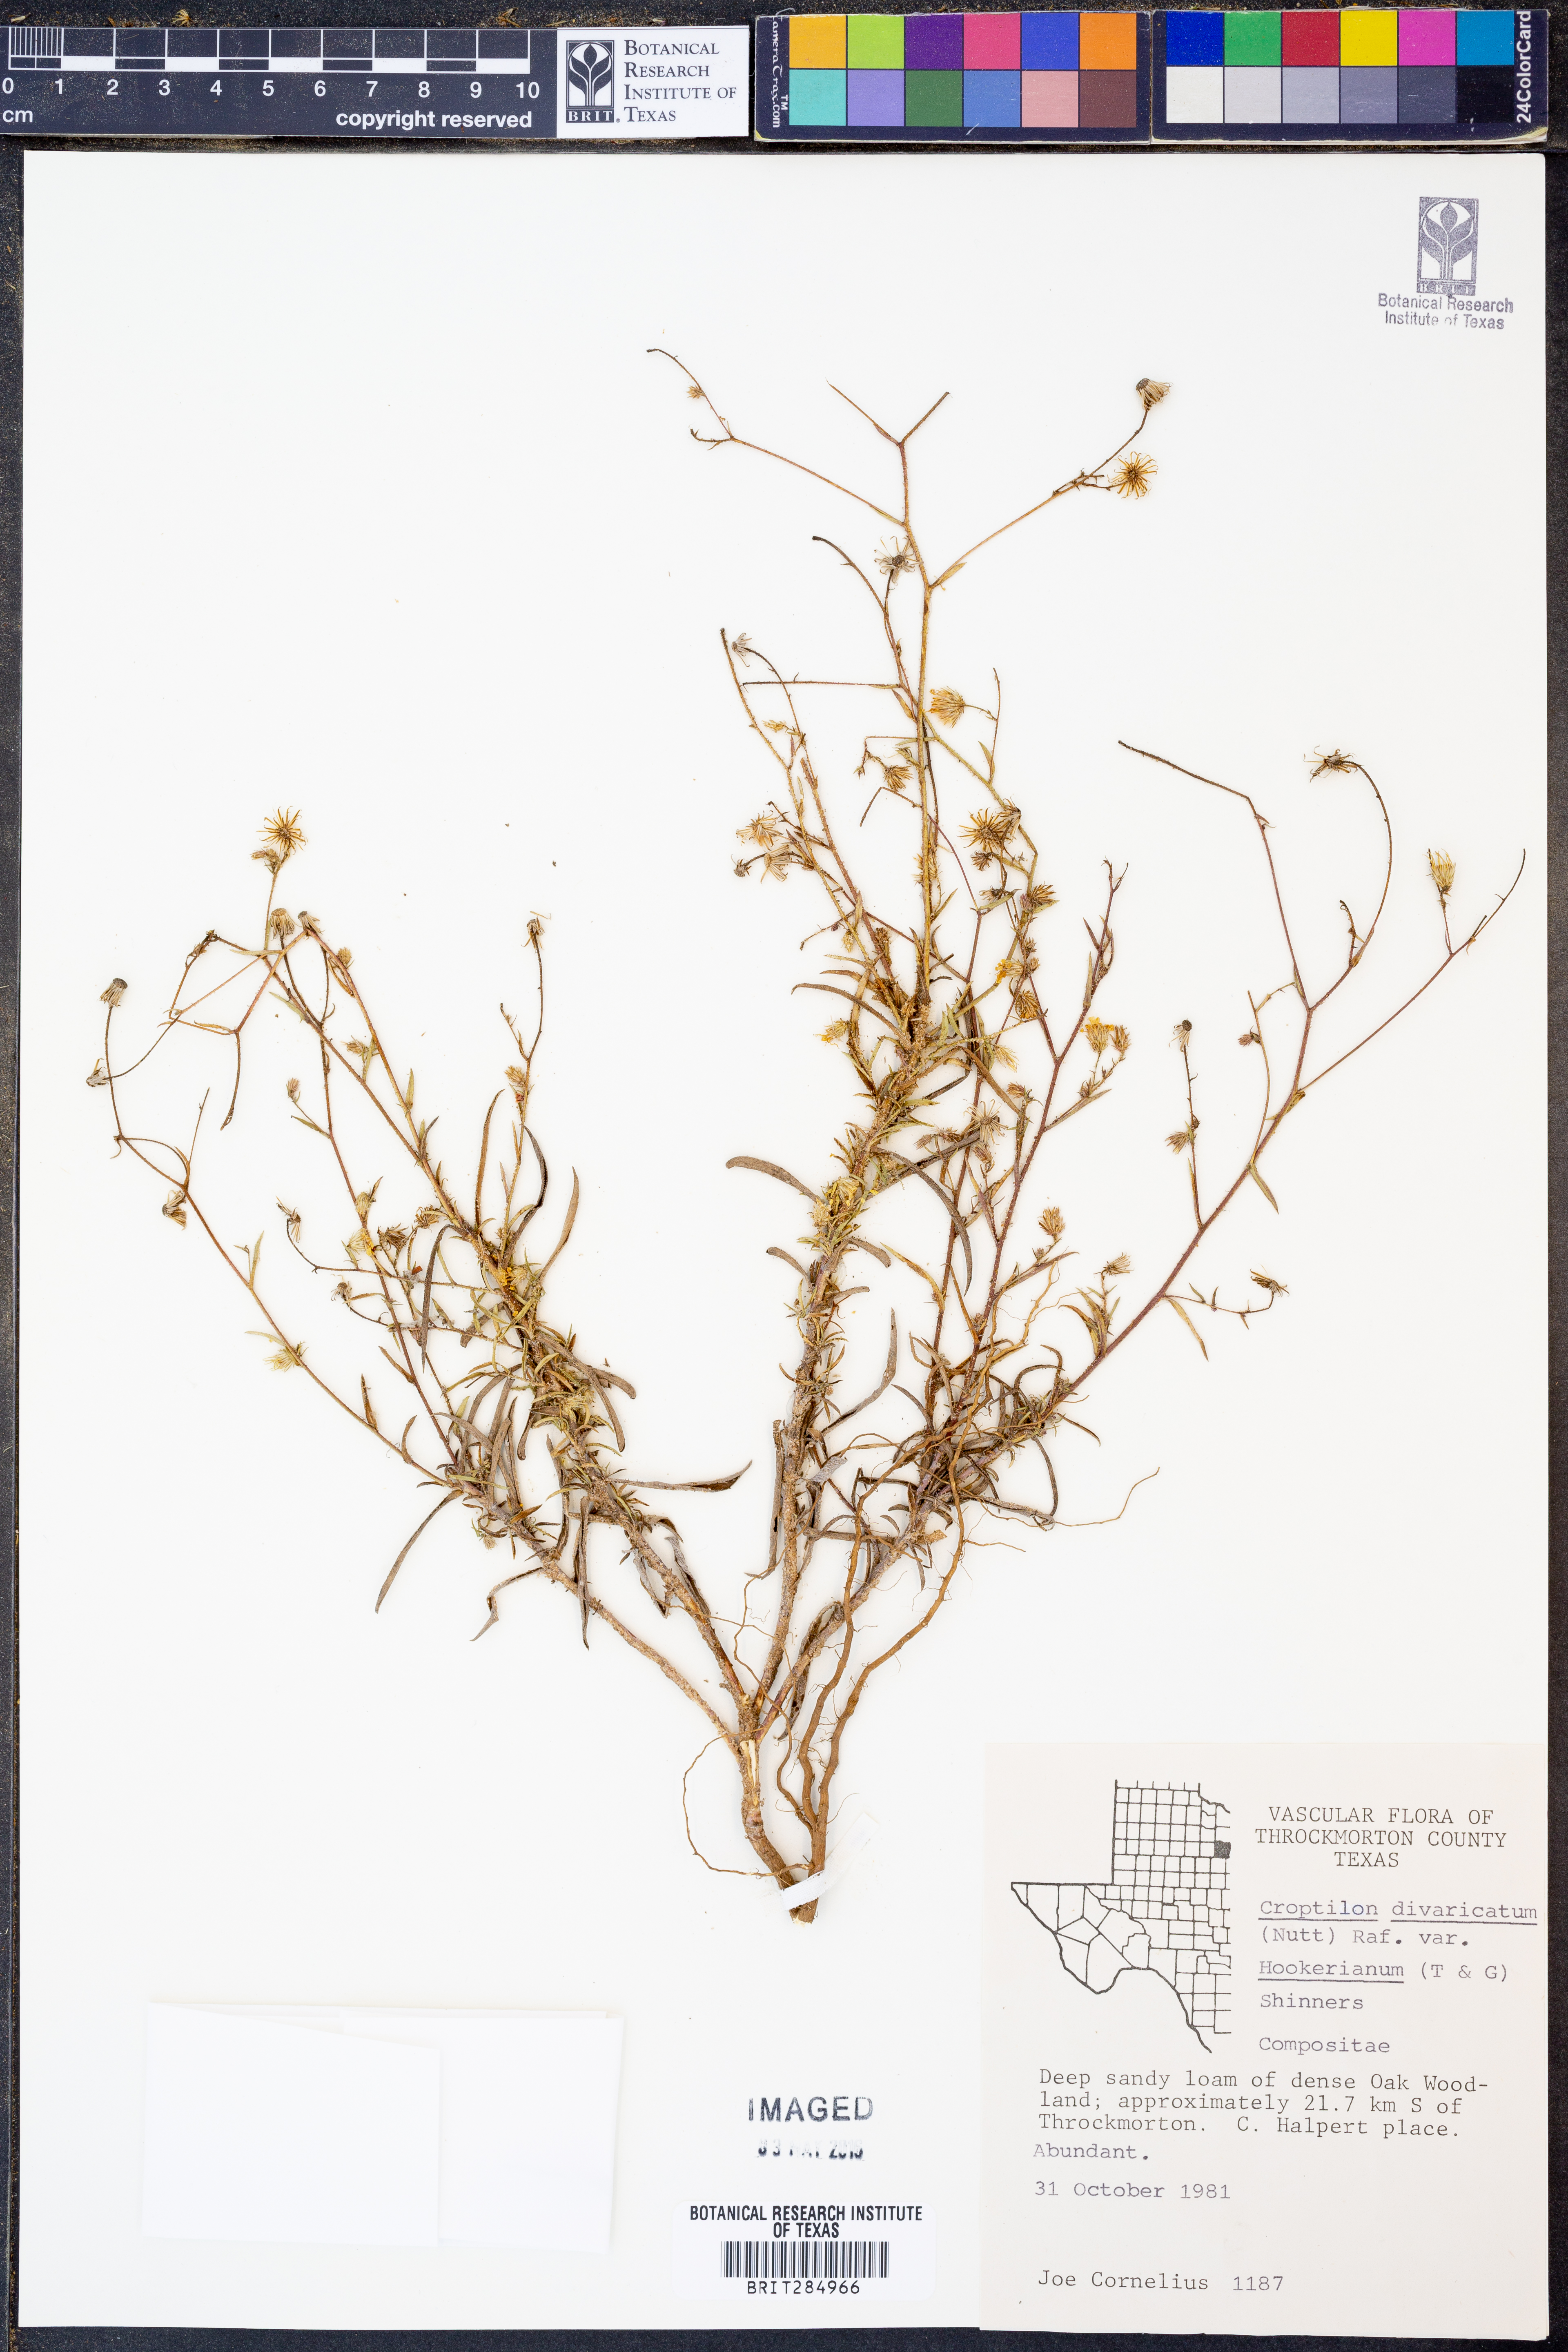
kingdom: Plantae
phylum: Tracheophyta
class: Magnoliopsida
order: Asterales
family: Asteraceae
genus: Croptilon
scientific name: Croptilon hookerianum
